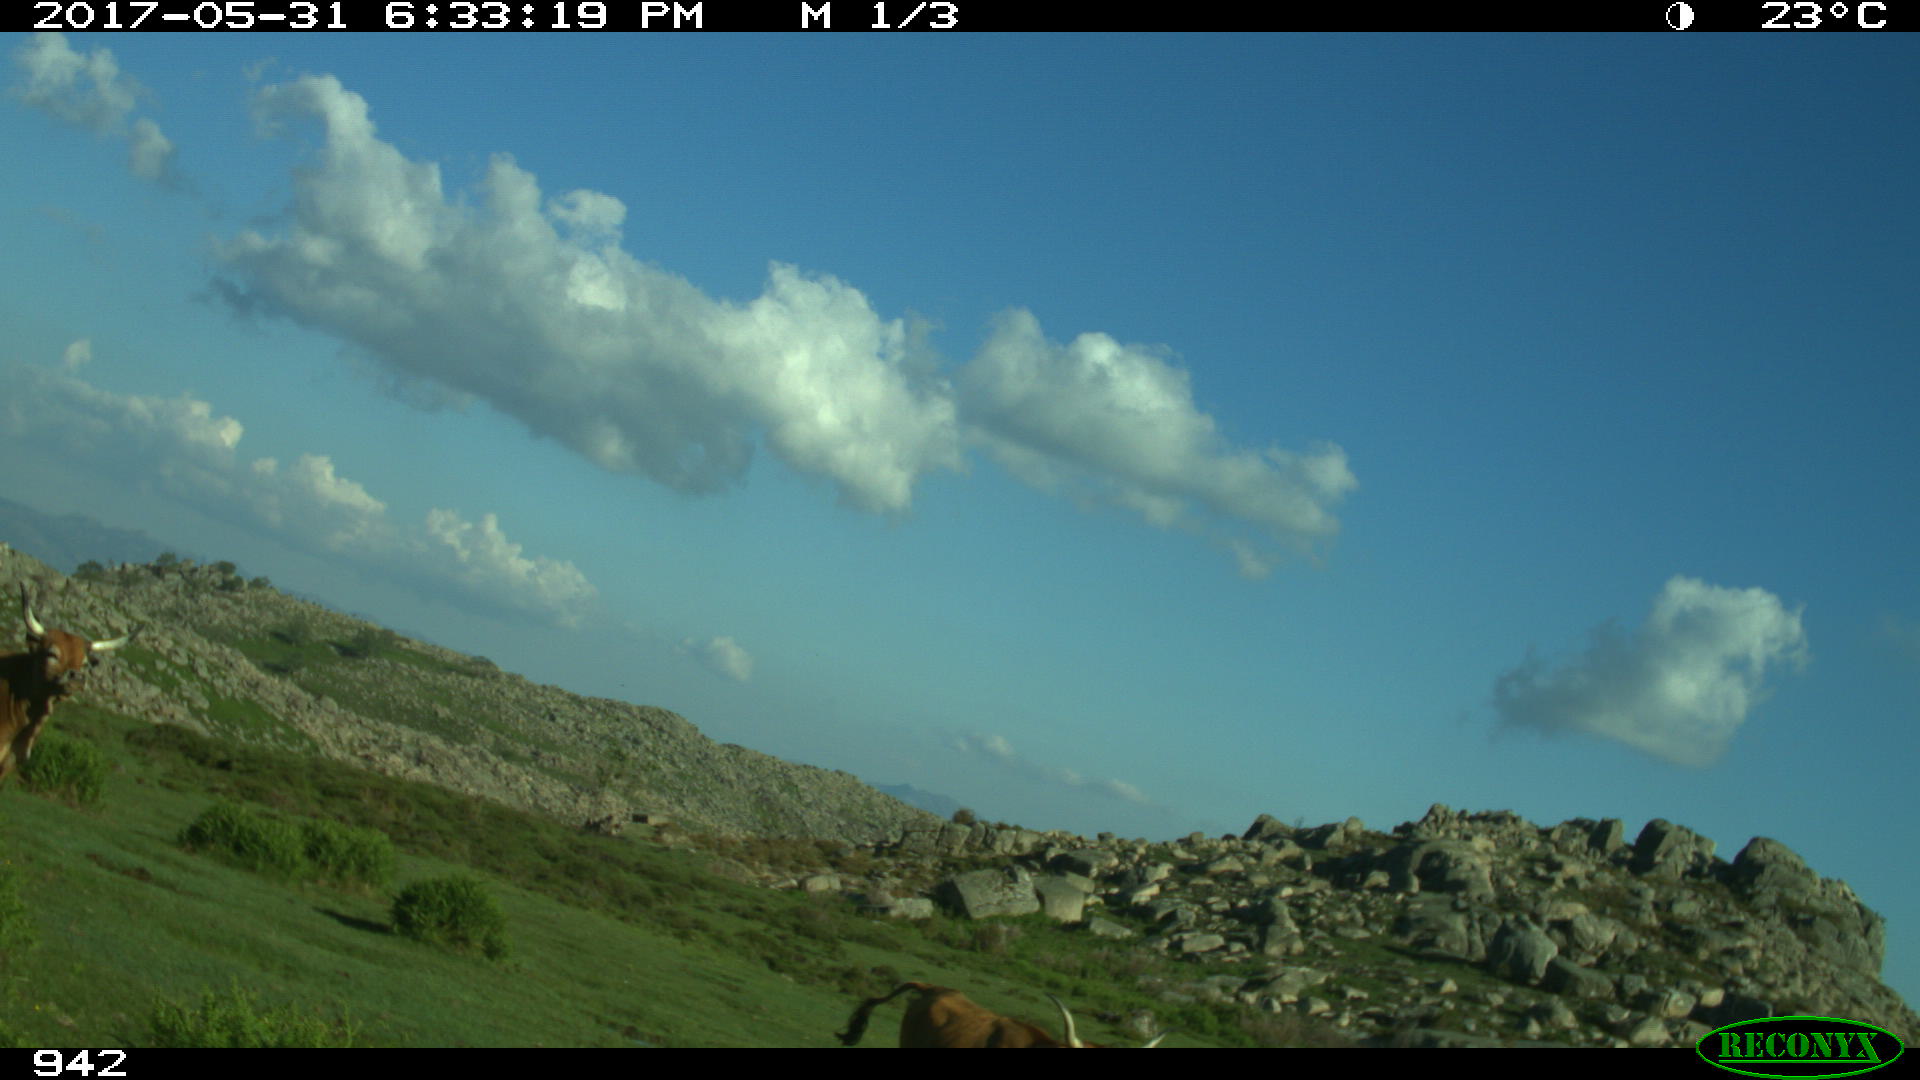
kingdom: Animalia
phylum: Chordata
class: Mammalia
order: Artiodactyla
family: Bovidae
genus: Bos
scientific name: Bos taurus
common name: Domesticated cattle
